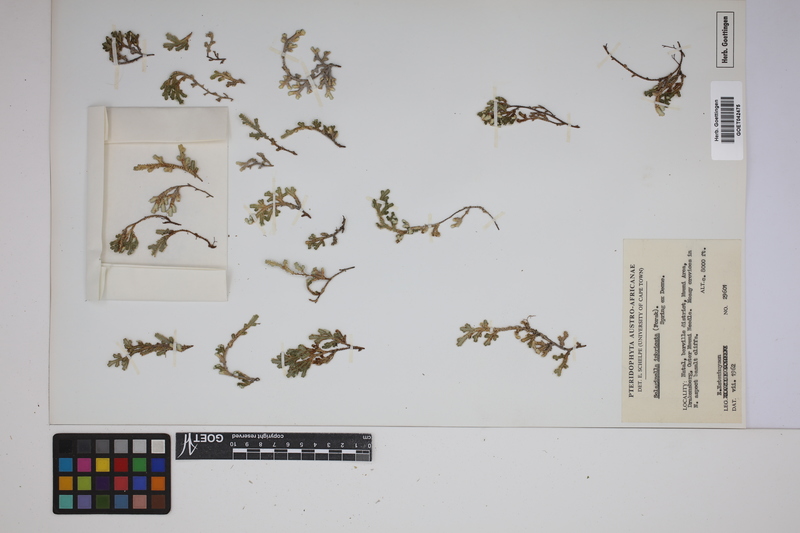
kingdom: Plantae
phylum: Tracheophyta
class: Lycopodiopsida
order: Selaginellales
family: Selaginellaceae
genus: Selaginella
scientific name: Selaginella bryopteris
